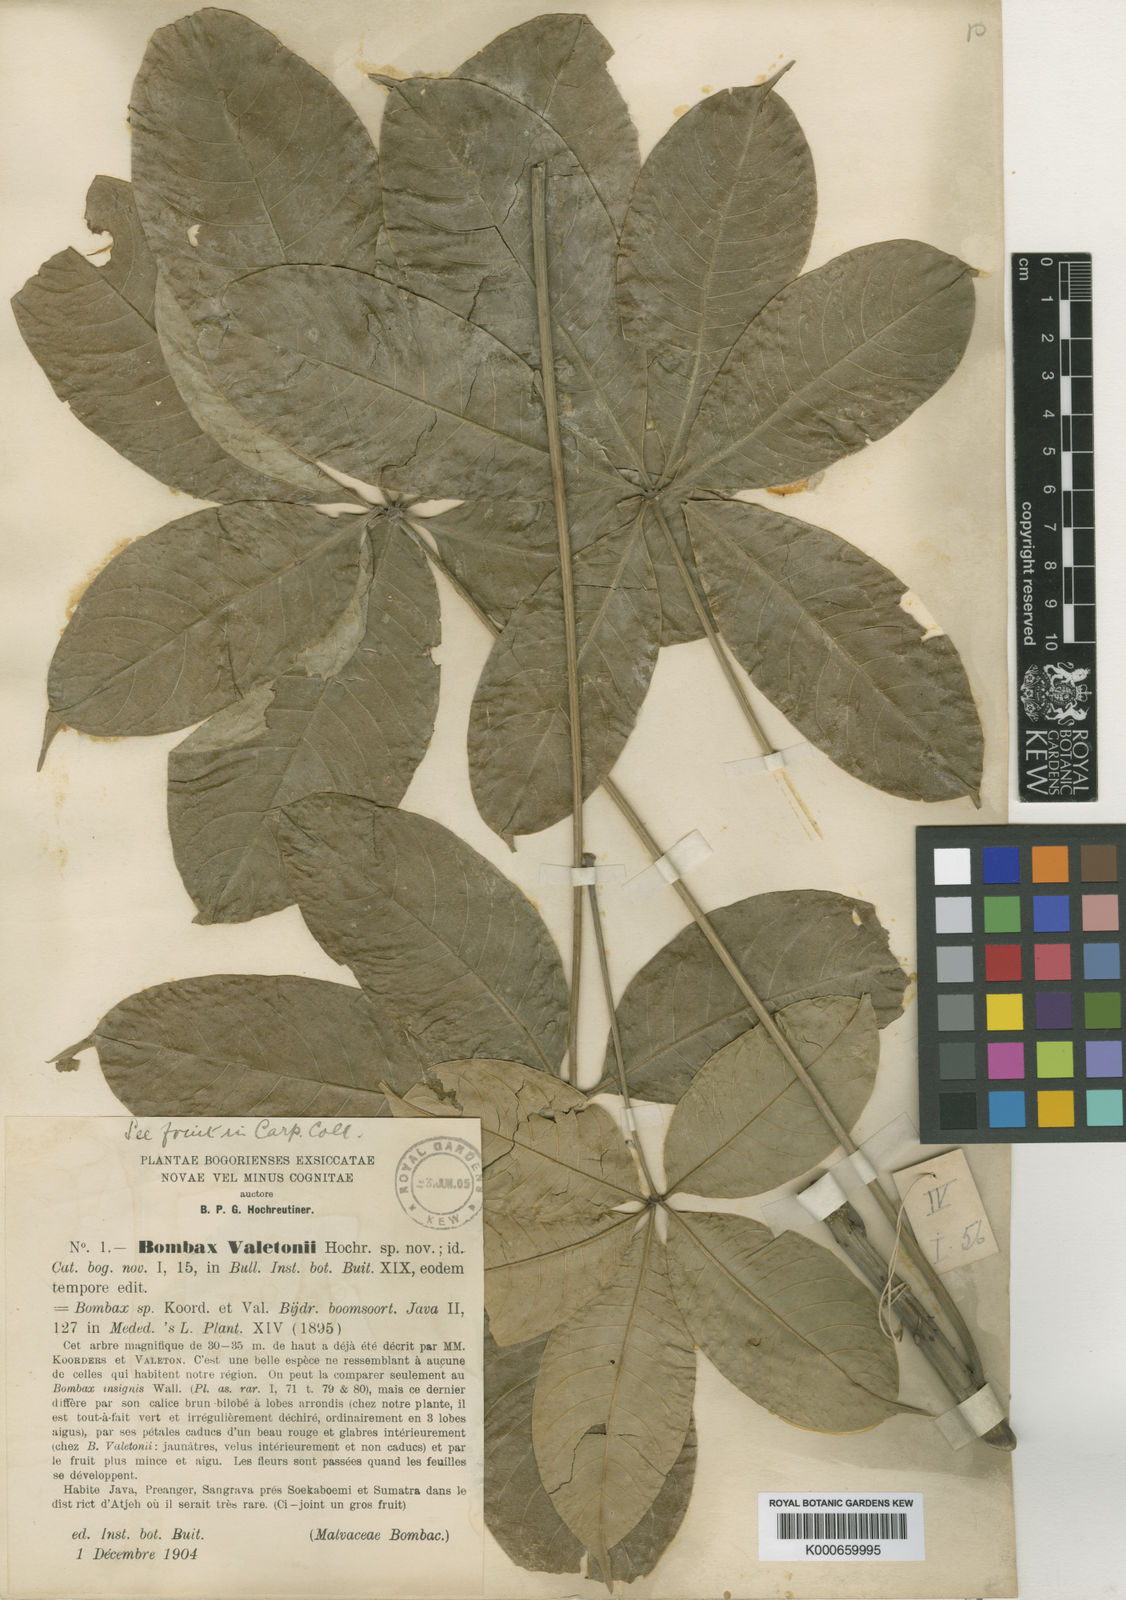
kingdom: Plantae
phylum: Tracheophyta
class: Magnoliopsida
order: Malvales
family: Malvaceae
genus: Bombax
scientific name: Bombax anceps
